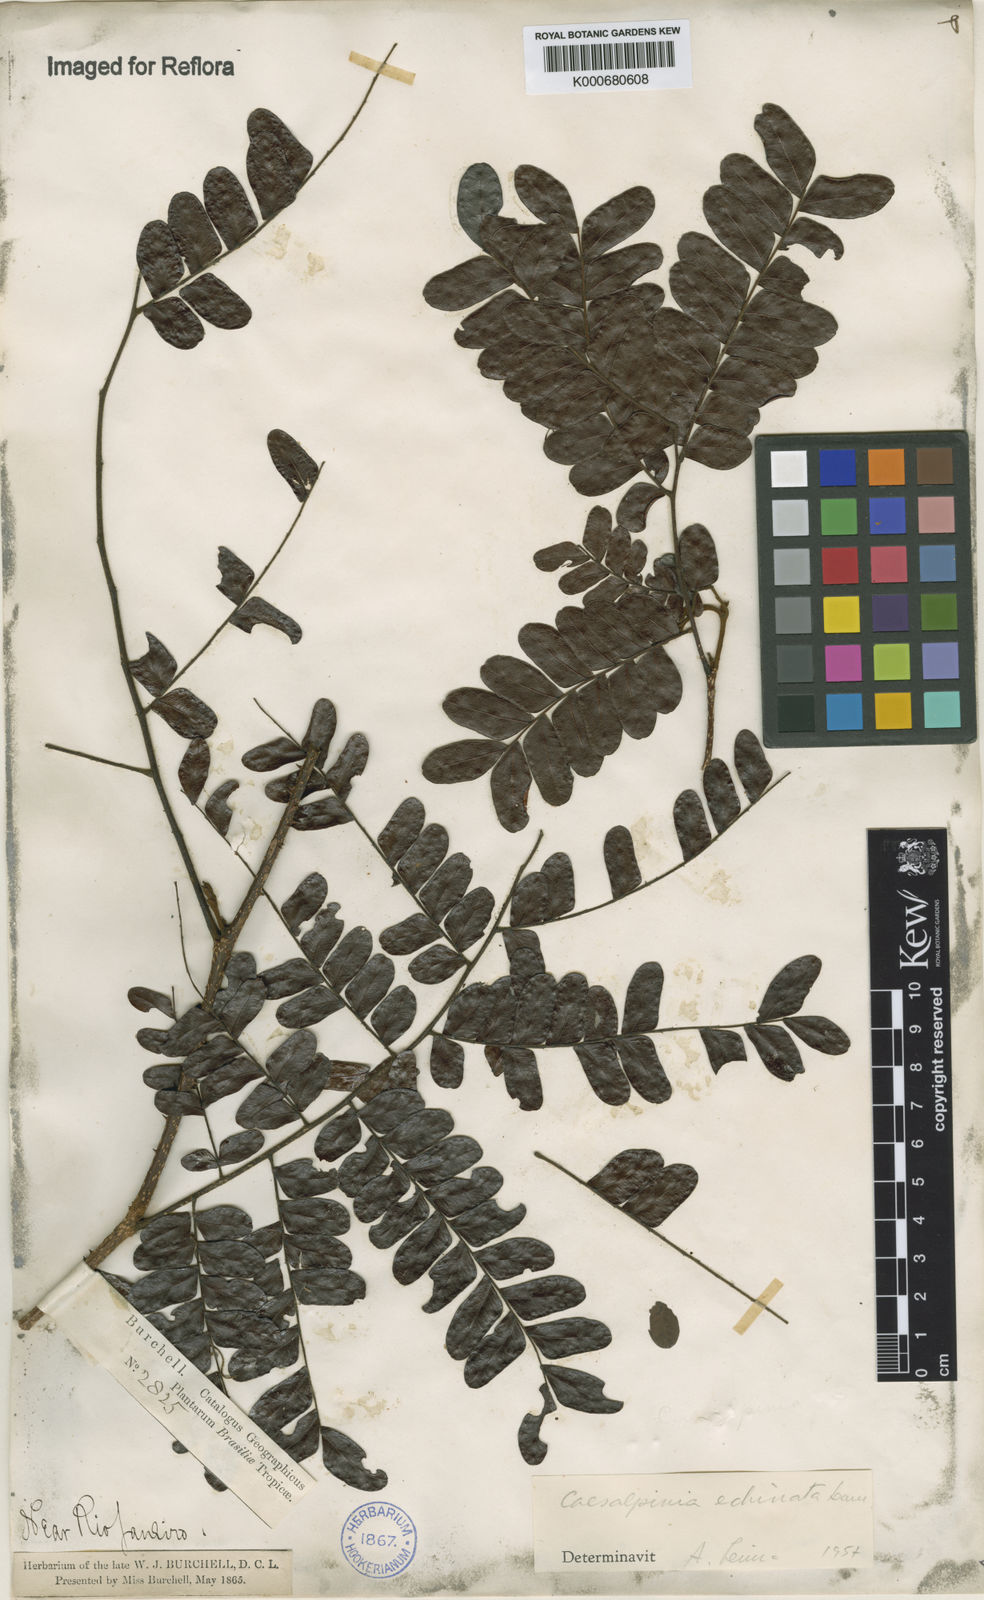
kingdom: Plantae
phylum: Tracheophyta
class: Magnoliopsida
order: Fabales
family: Fabaceae
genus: Paubrasilia
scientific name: Paubrasilia echinata
